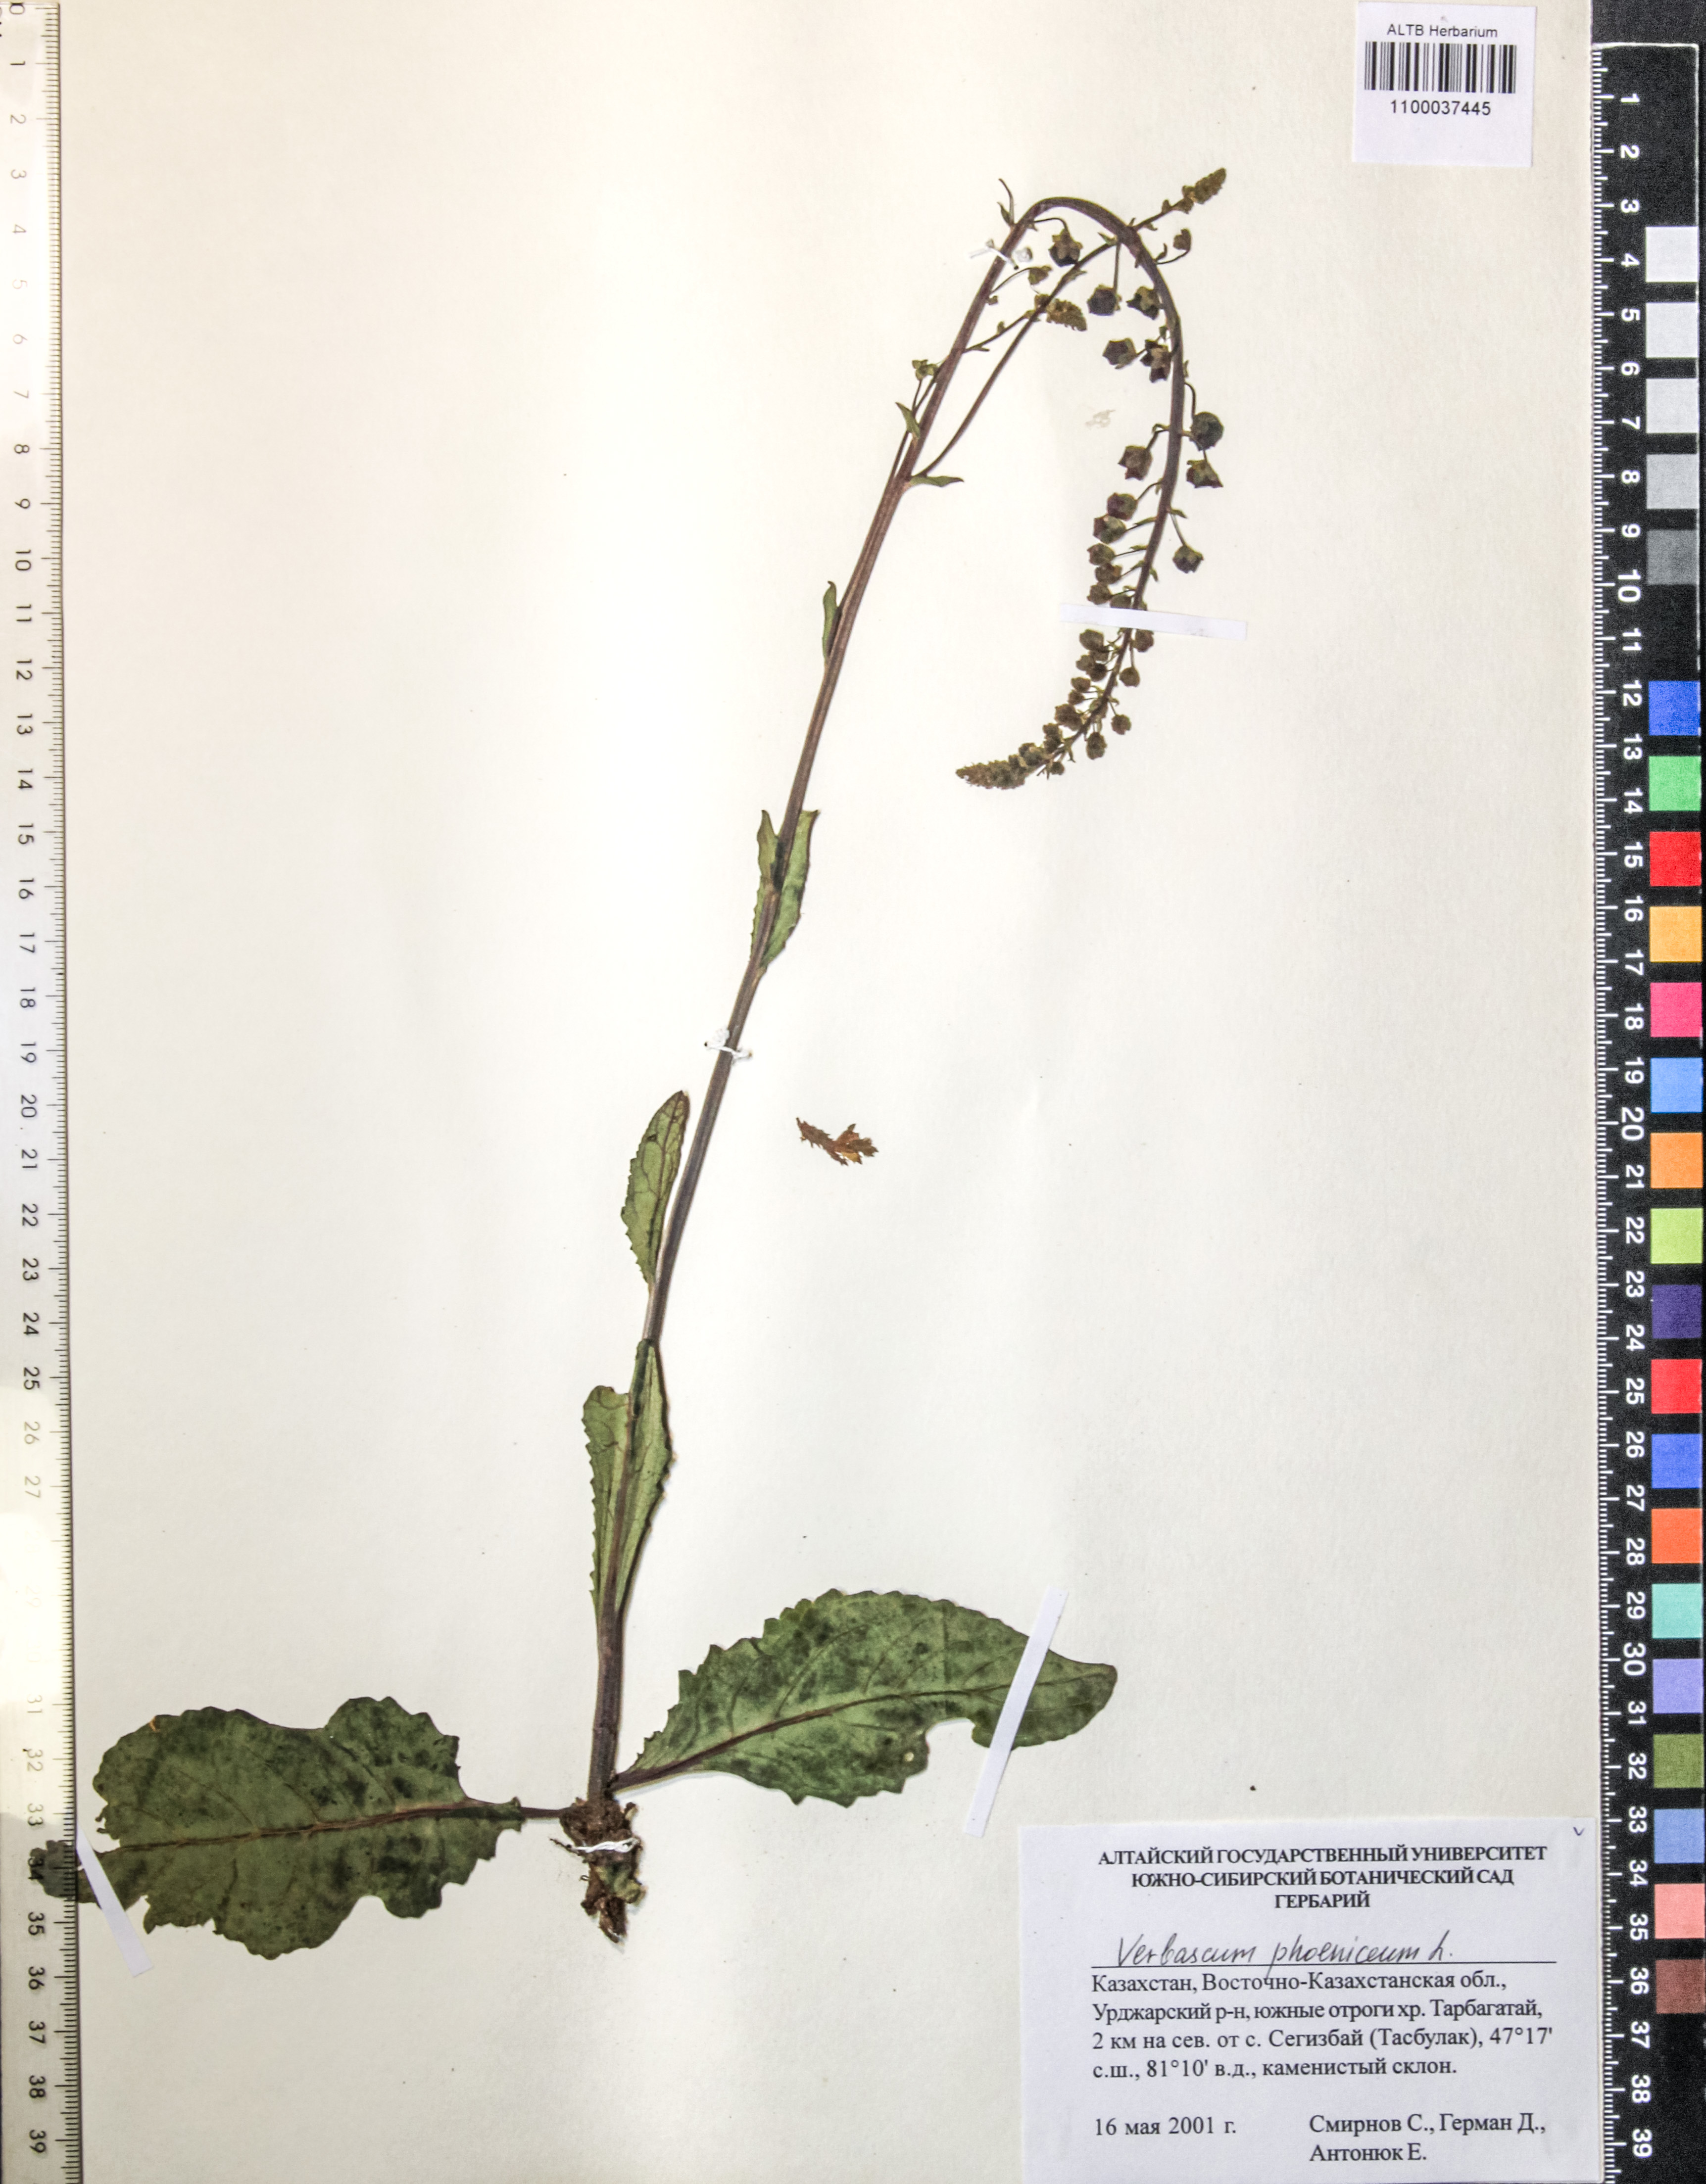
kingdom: Plantae
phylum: Tracheophyta
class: Magnoliopsida
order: Lamiales
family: Scrophulariaceae
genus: Verbascum
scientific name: Verbascum phoeniceum
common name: Purple mullein
